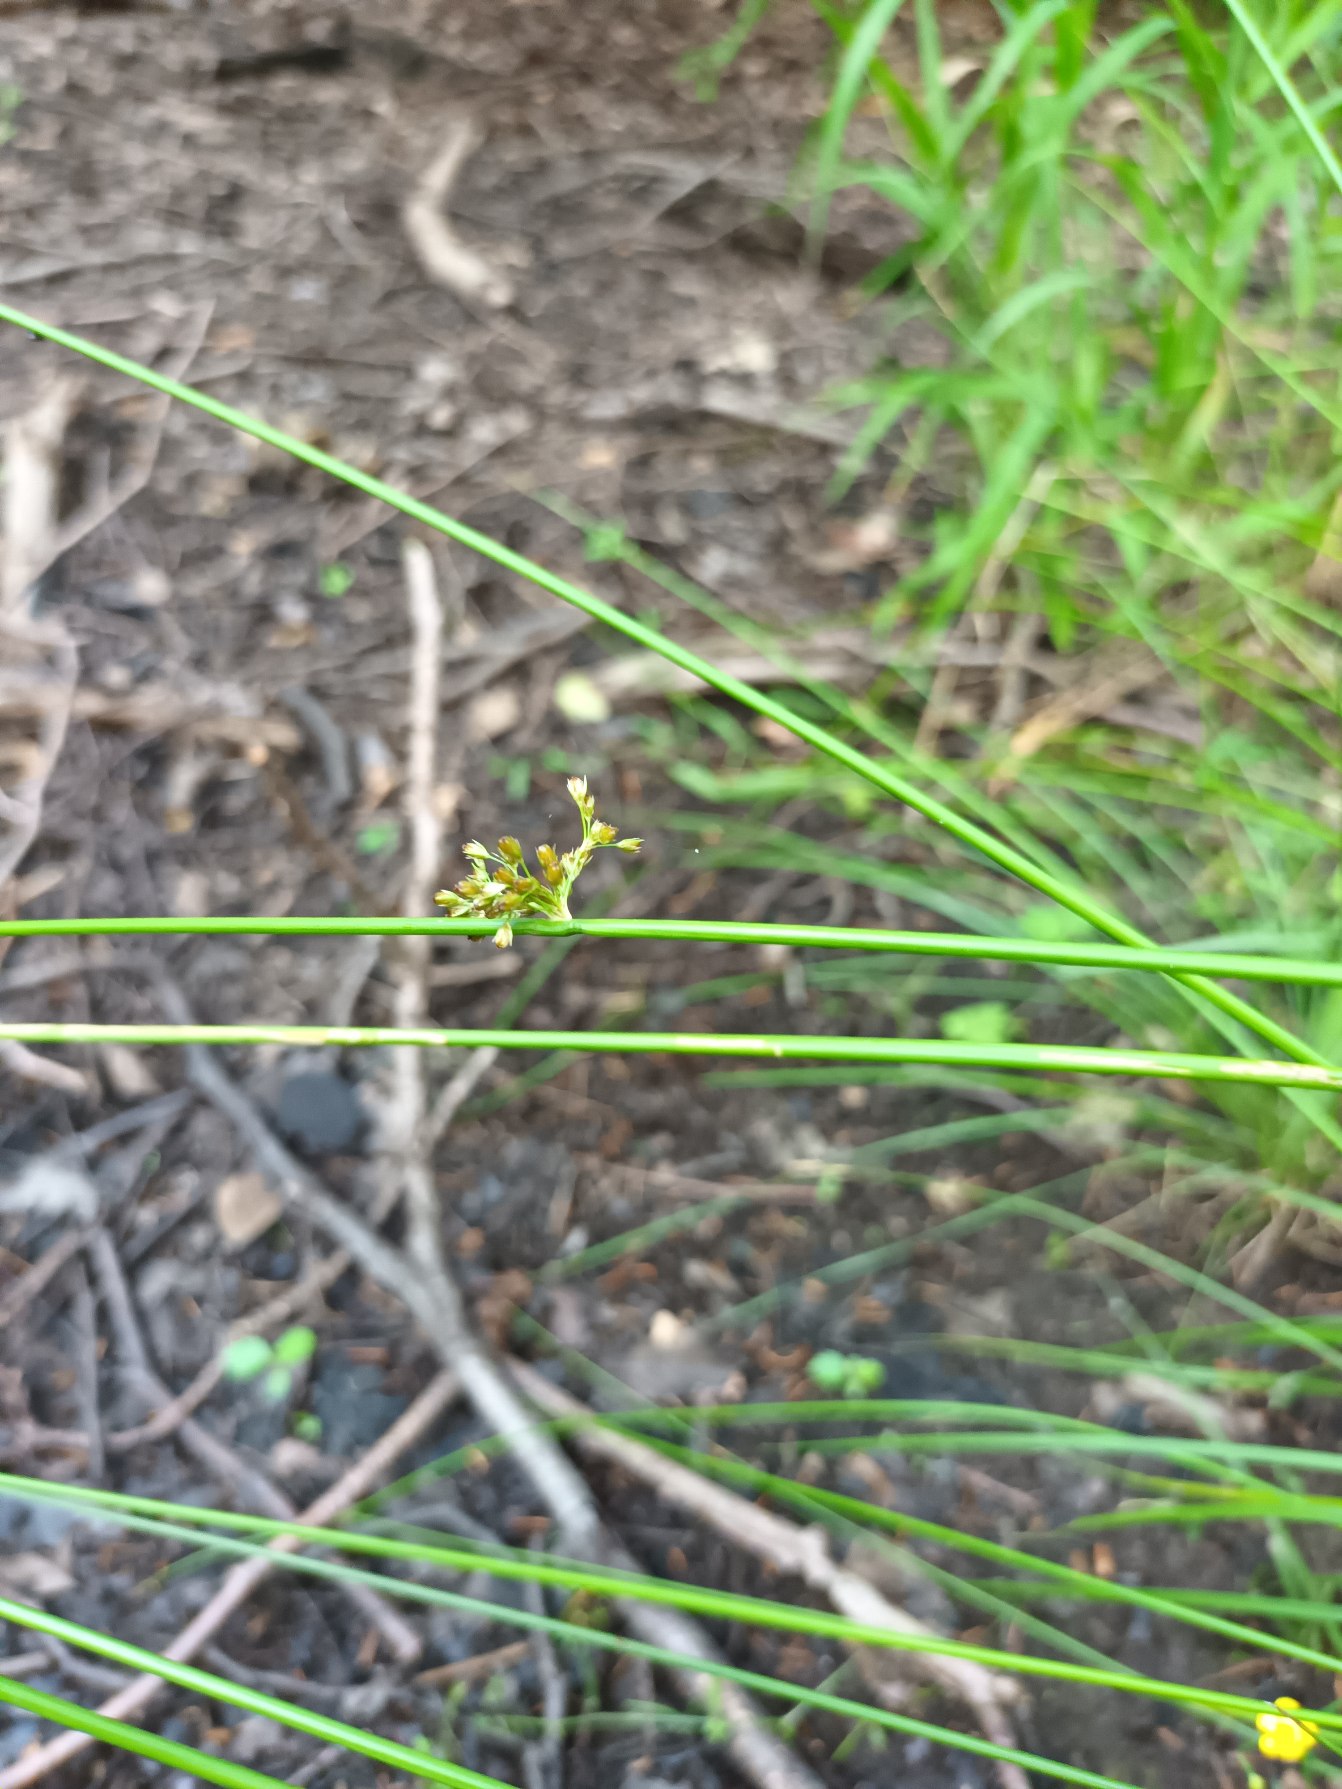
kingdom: Plantae
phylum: Tracheophyta
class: Liliopsida
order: Poales
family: Juncaceae
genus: Juncus
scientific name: Juncus effusus
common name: Lyse-siv
